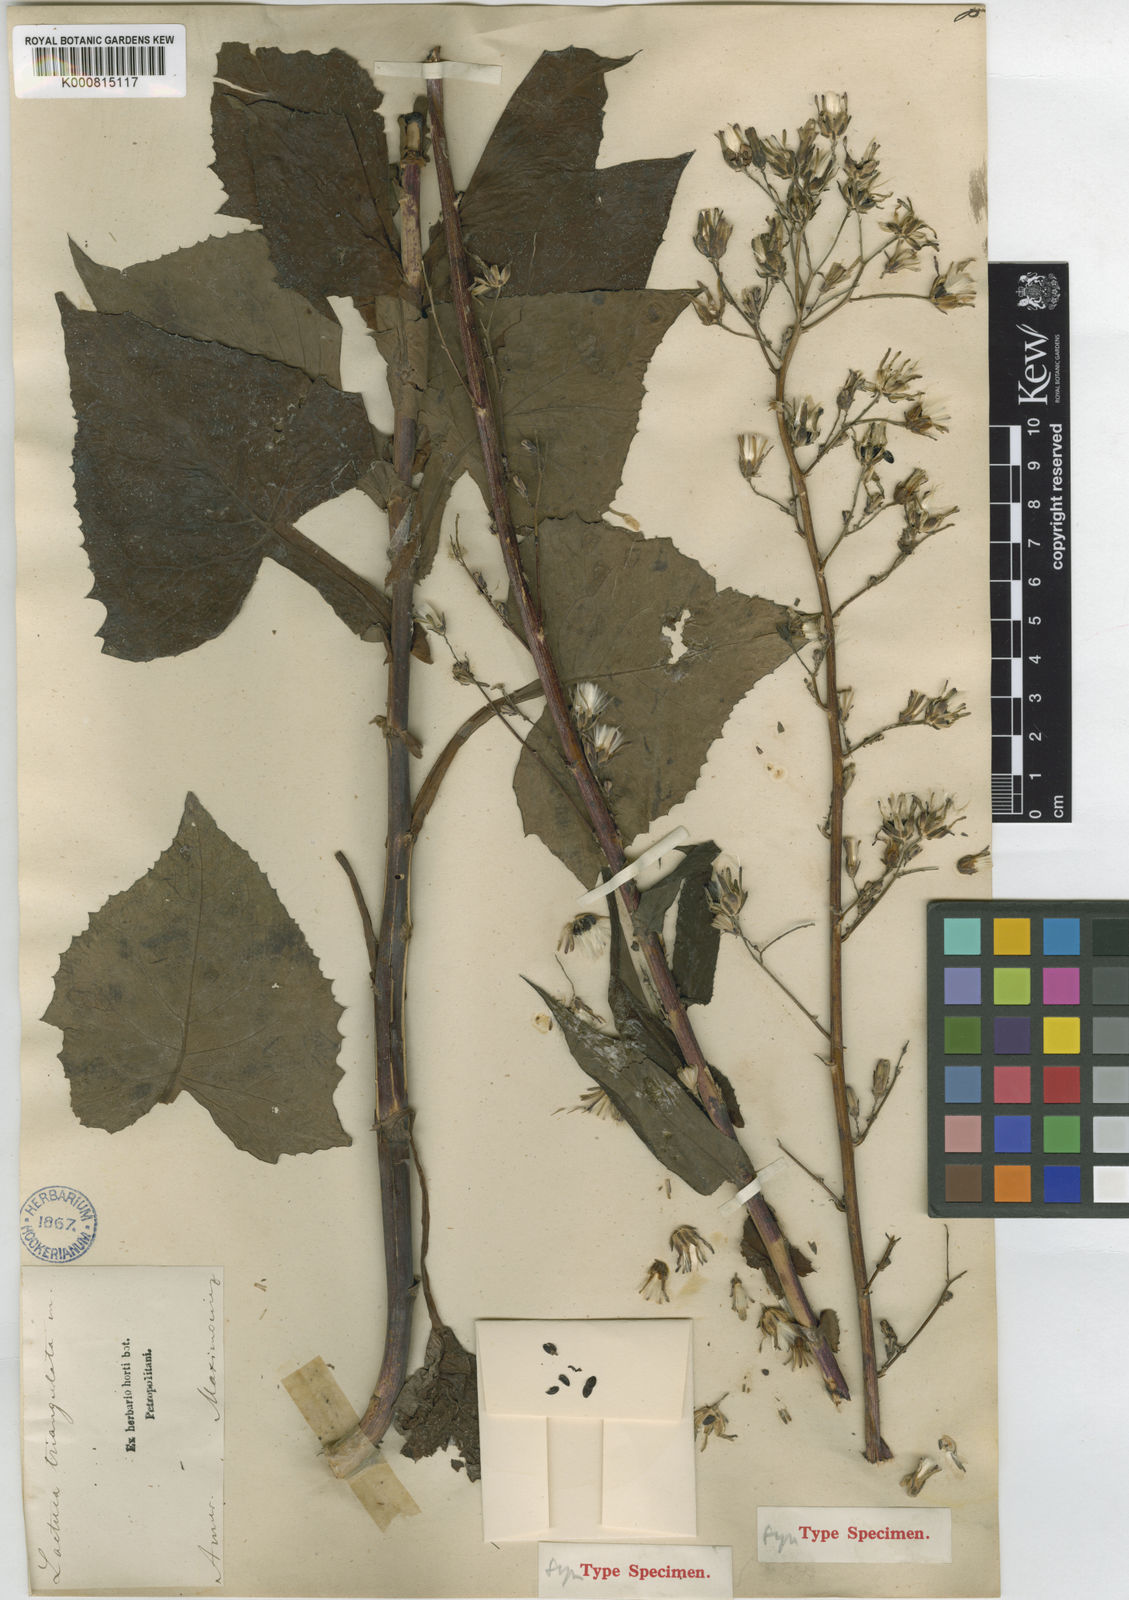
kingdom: Plantae
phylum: Tracheophyta
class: Magnoliopsida
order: Asterales
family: Asteraceae
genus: Lactuca
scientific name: Lactuca raddeana
